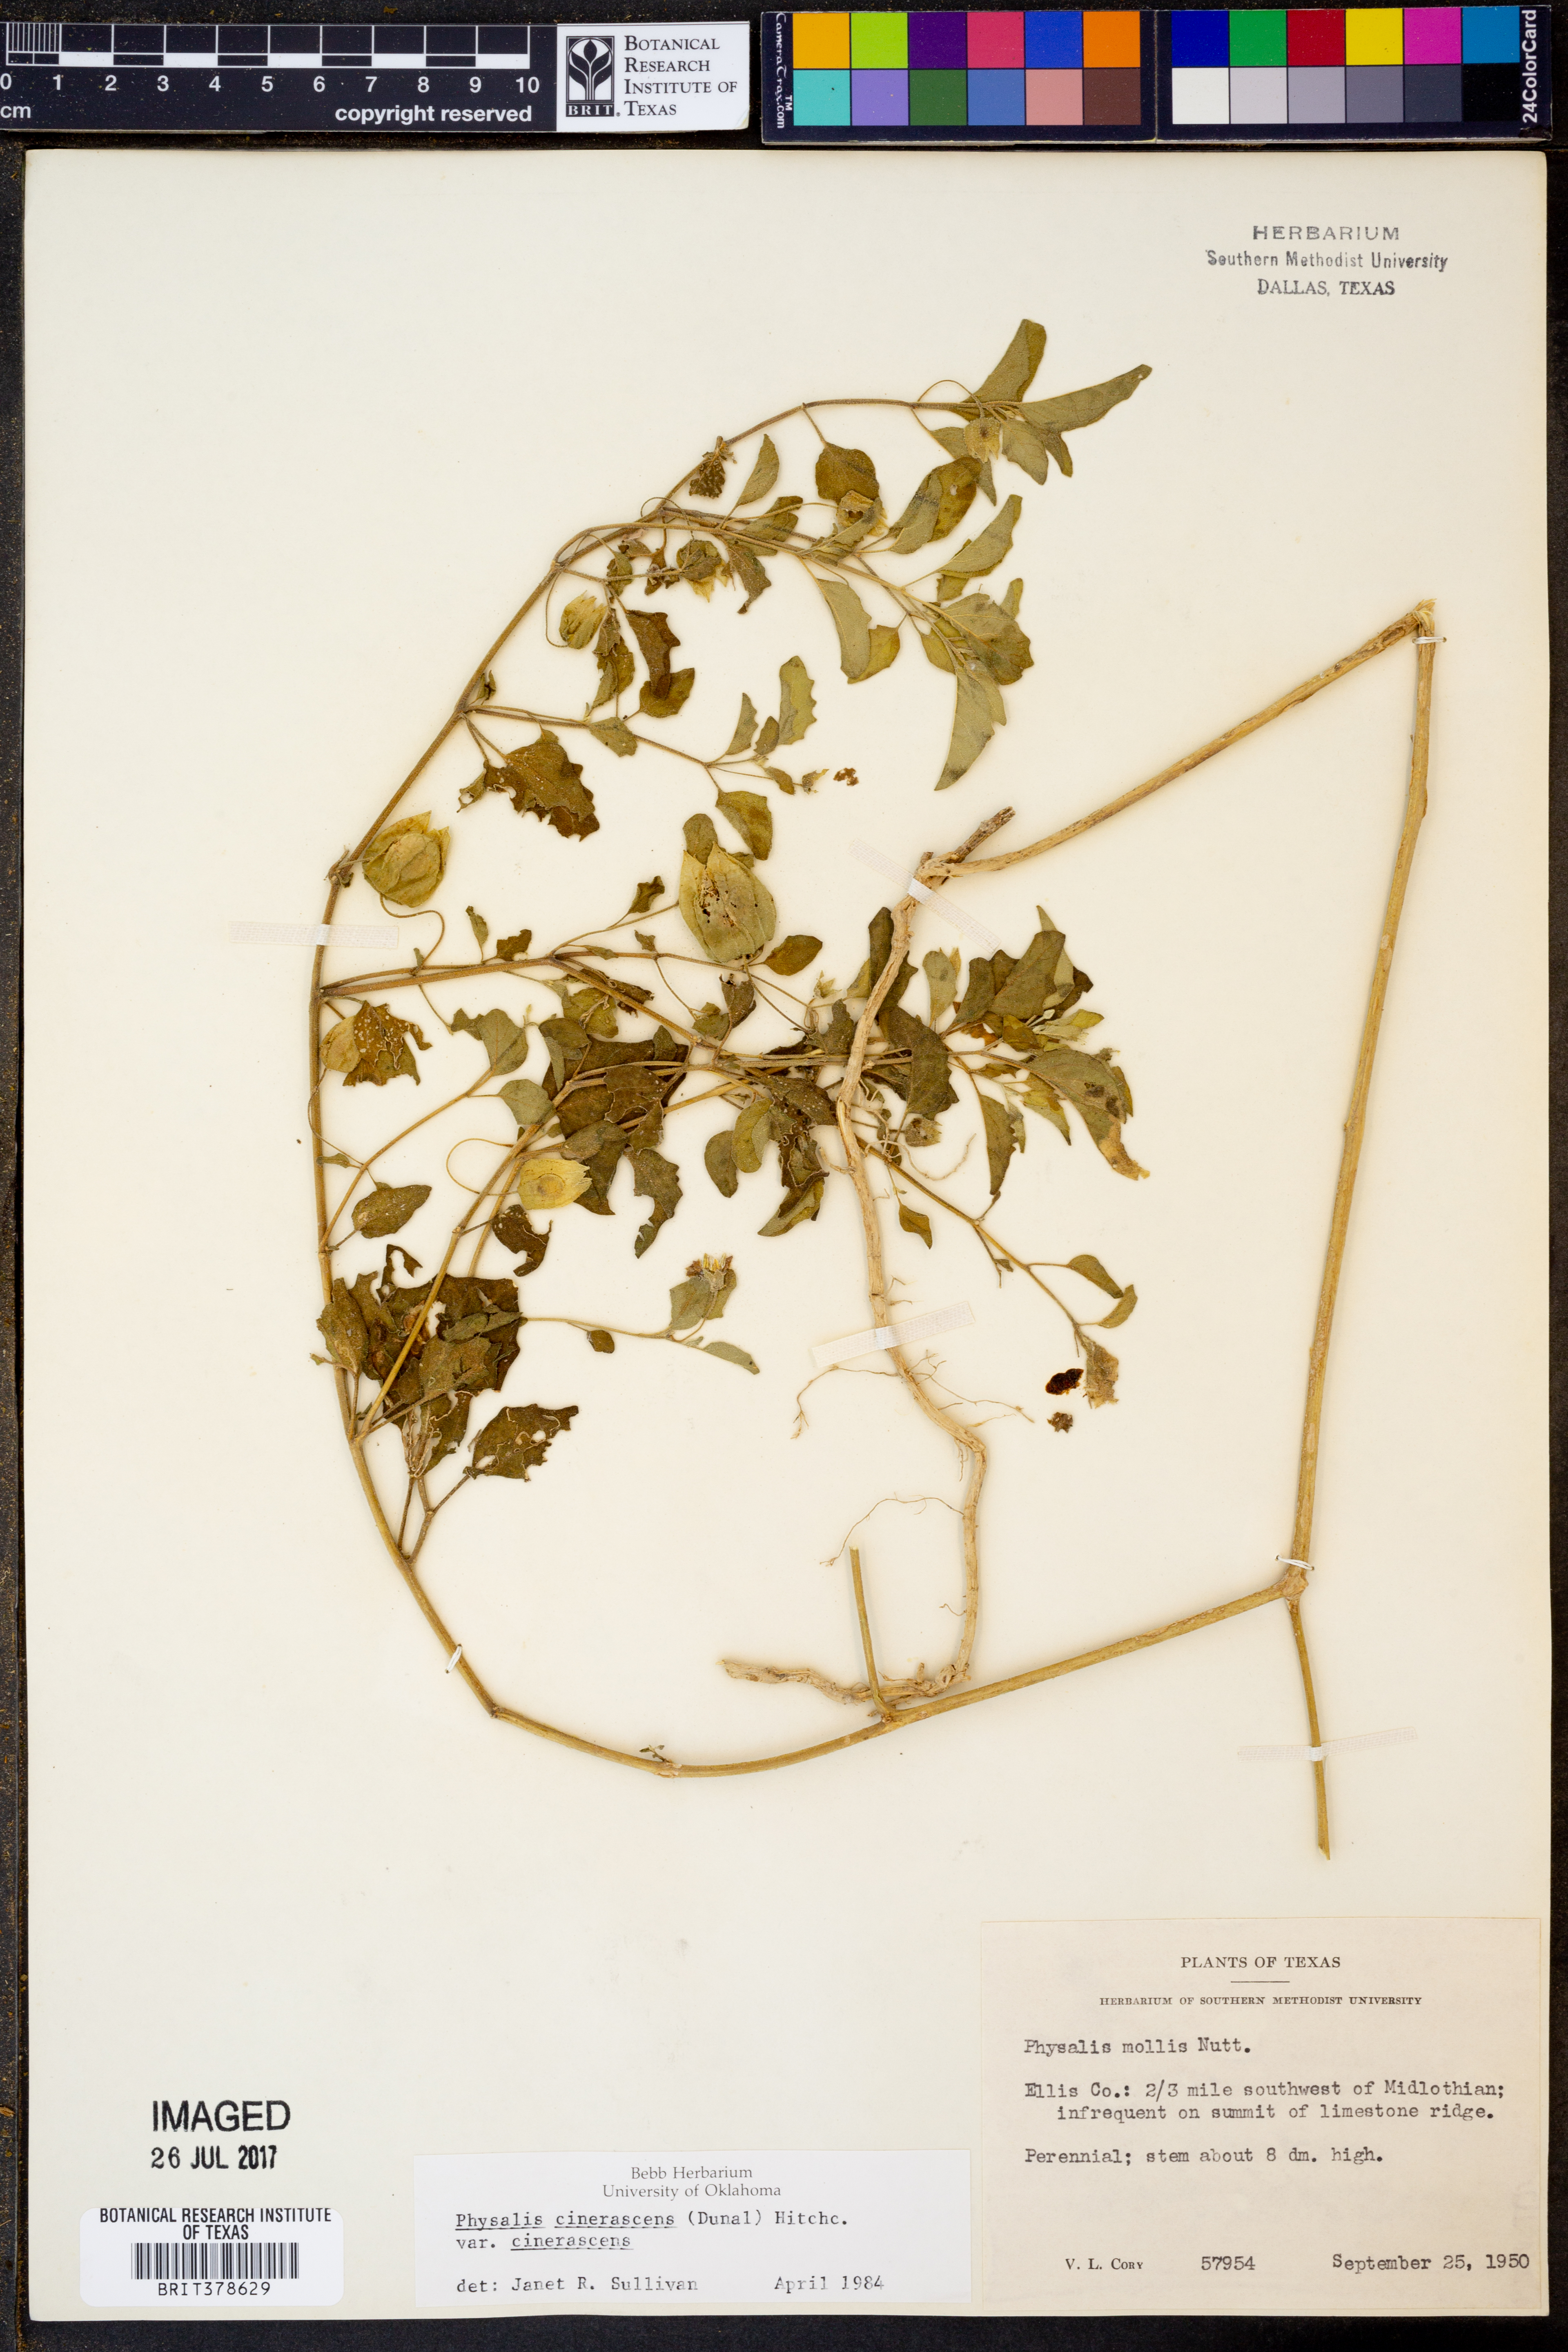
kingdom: Plantae
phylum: Tracheophyta
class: Magnoliopsida
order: Solanales
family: Solanaceae
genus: Physalis
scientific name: Physalis cinerascens
